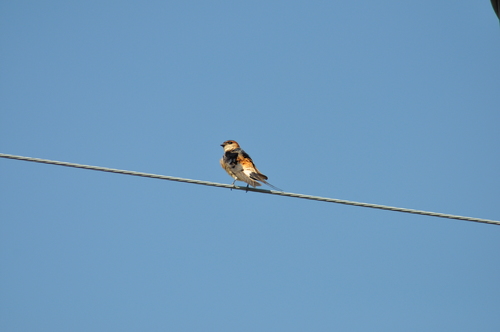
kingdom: Animalia
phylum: Chordata
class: Aves
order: Passeriformes
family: Hirundinidae
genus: Cecropis
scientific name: Cecropis daurica
